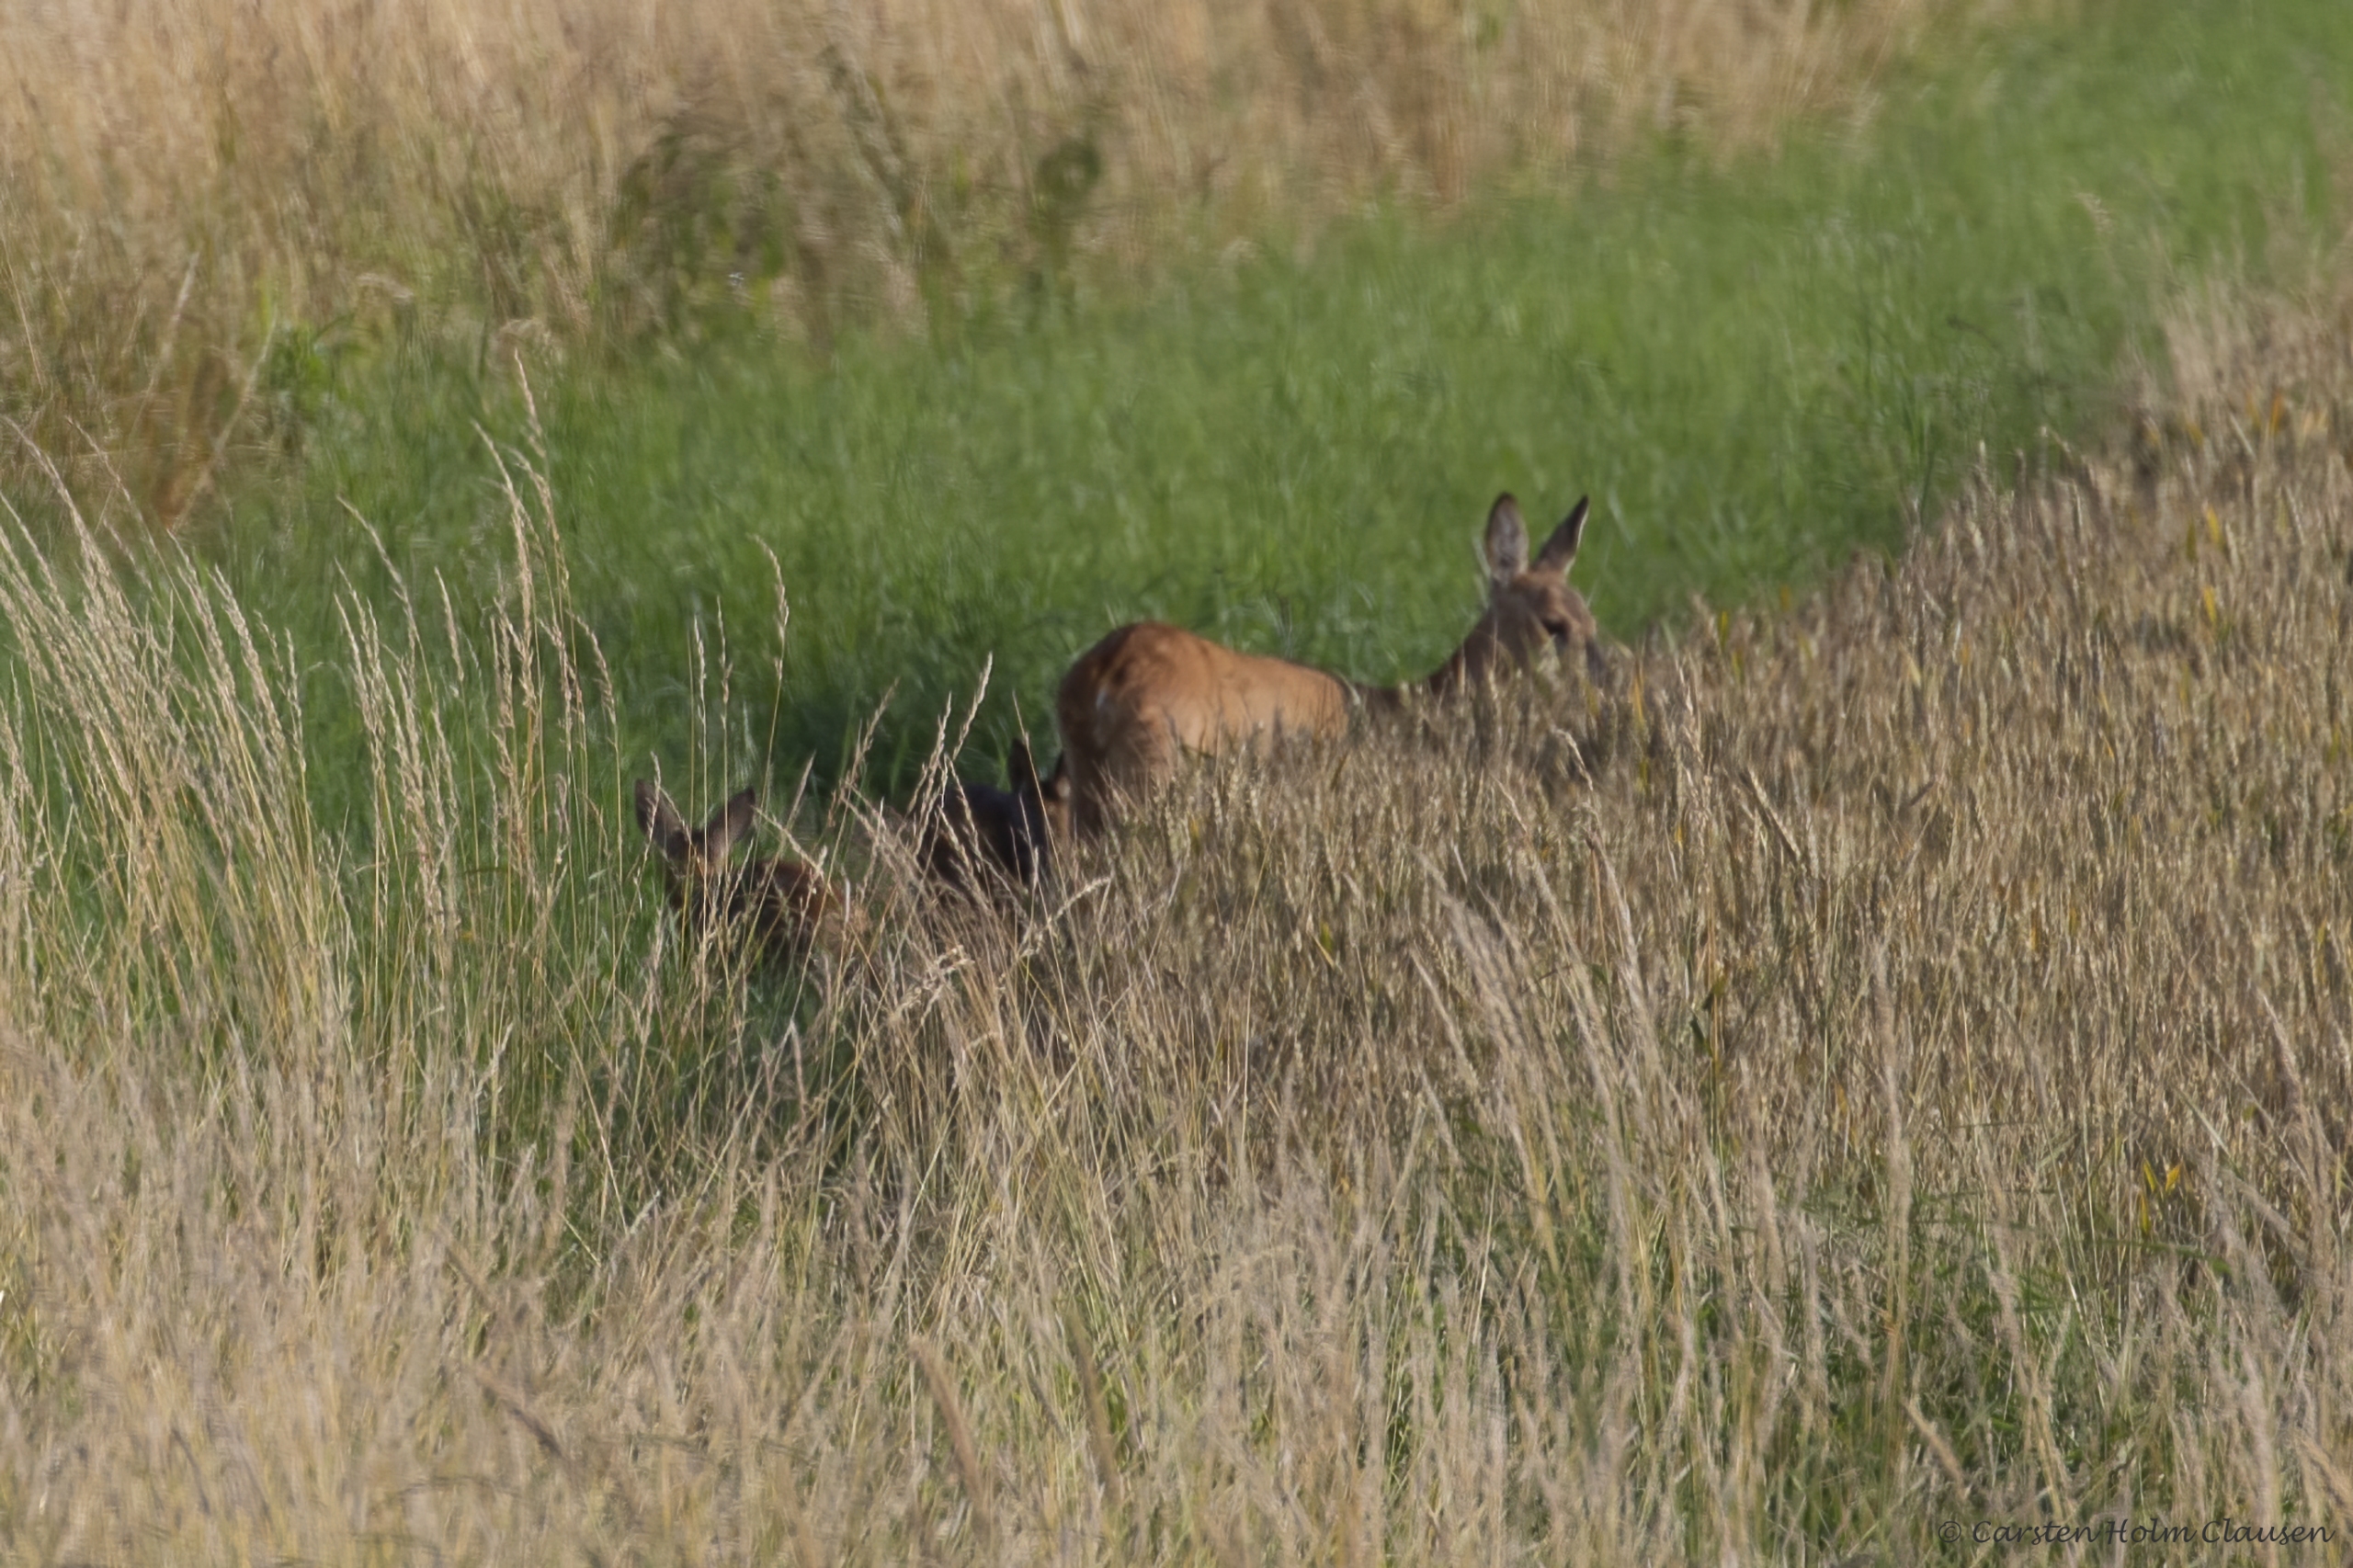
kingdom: Animalia
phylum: Chordata
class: Mammalia
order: Artiodactyla
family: Cervidae
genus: Capreolus
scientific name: Capreolus capreolus
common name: Rådyr
